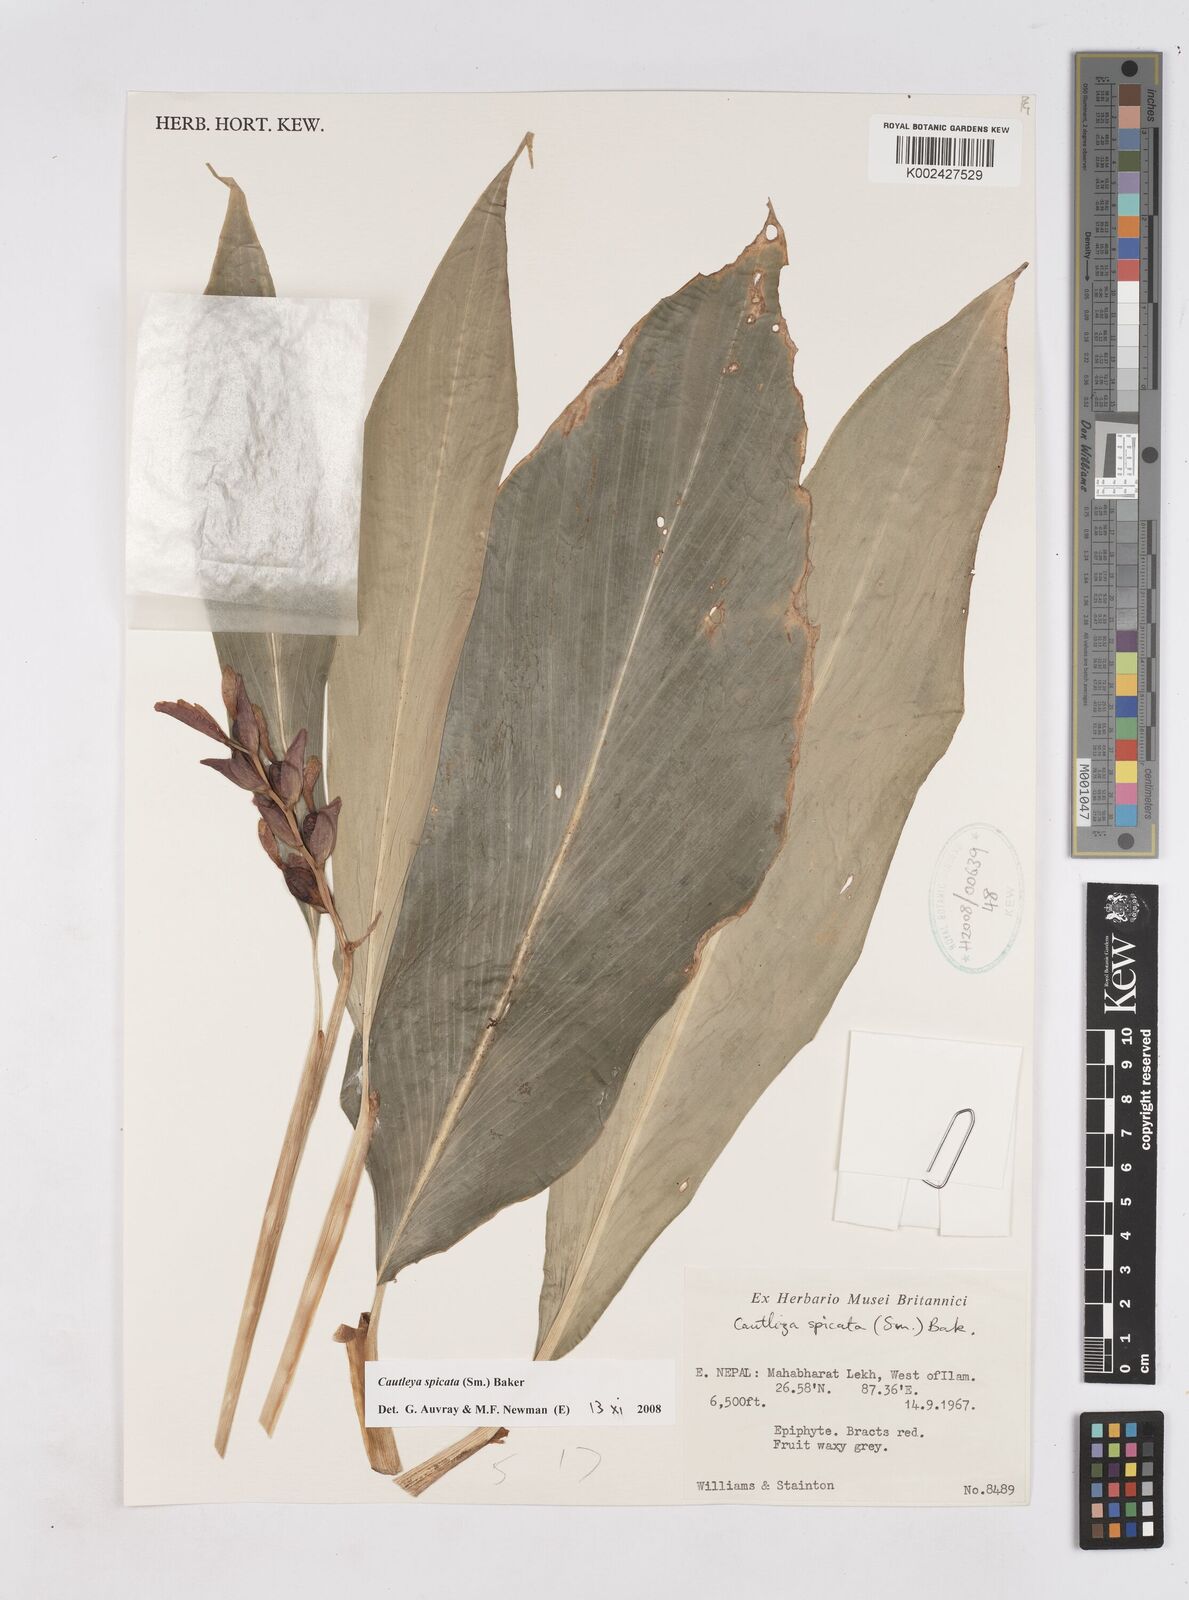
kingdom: Plantae
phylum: Tracheophyta
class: Liliopsida
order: Zingiberales
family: Zingiberaceae
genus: Cautleya
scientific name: Cautleya spicata
